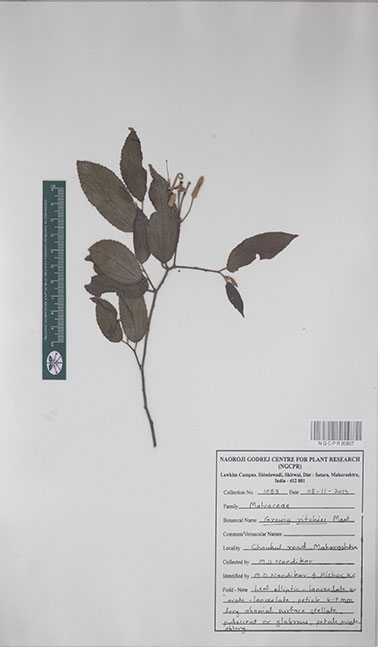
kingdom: Plantae
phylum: Tracheophyta
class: Magnoliopsida
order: Malvales
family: Malvaceae
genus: Grewia
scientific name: Grewia ritchiei
